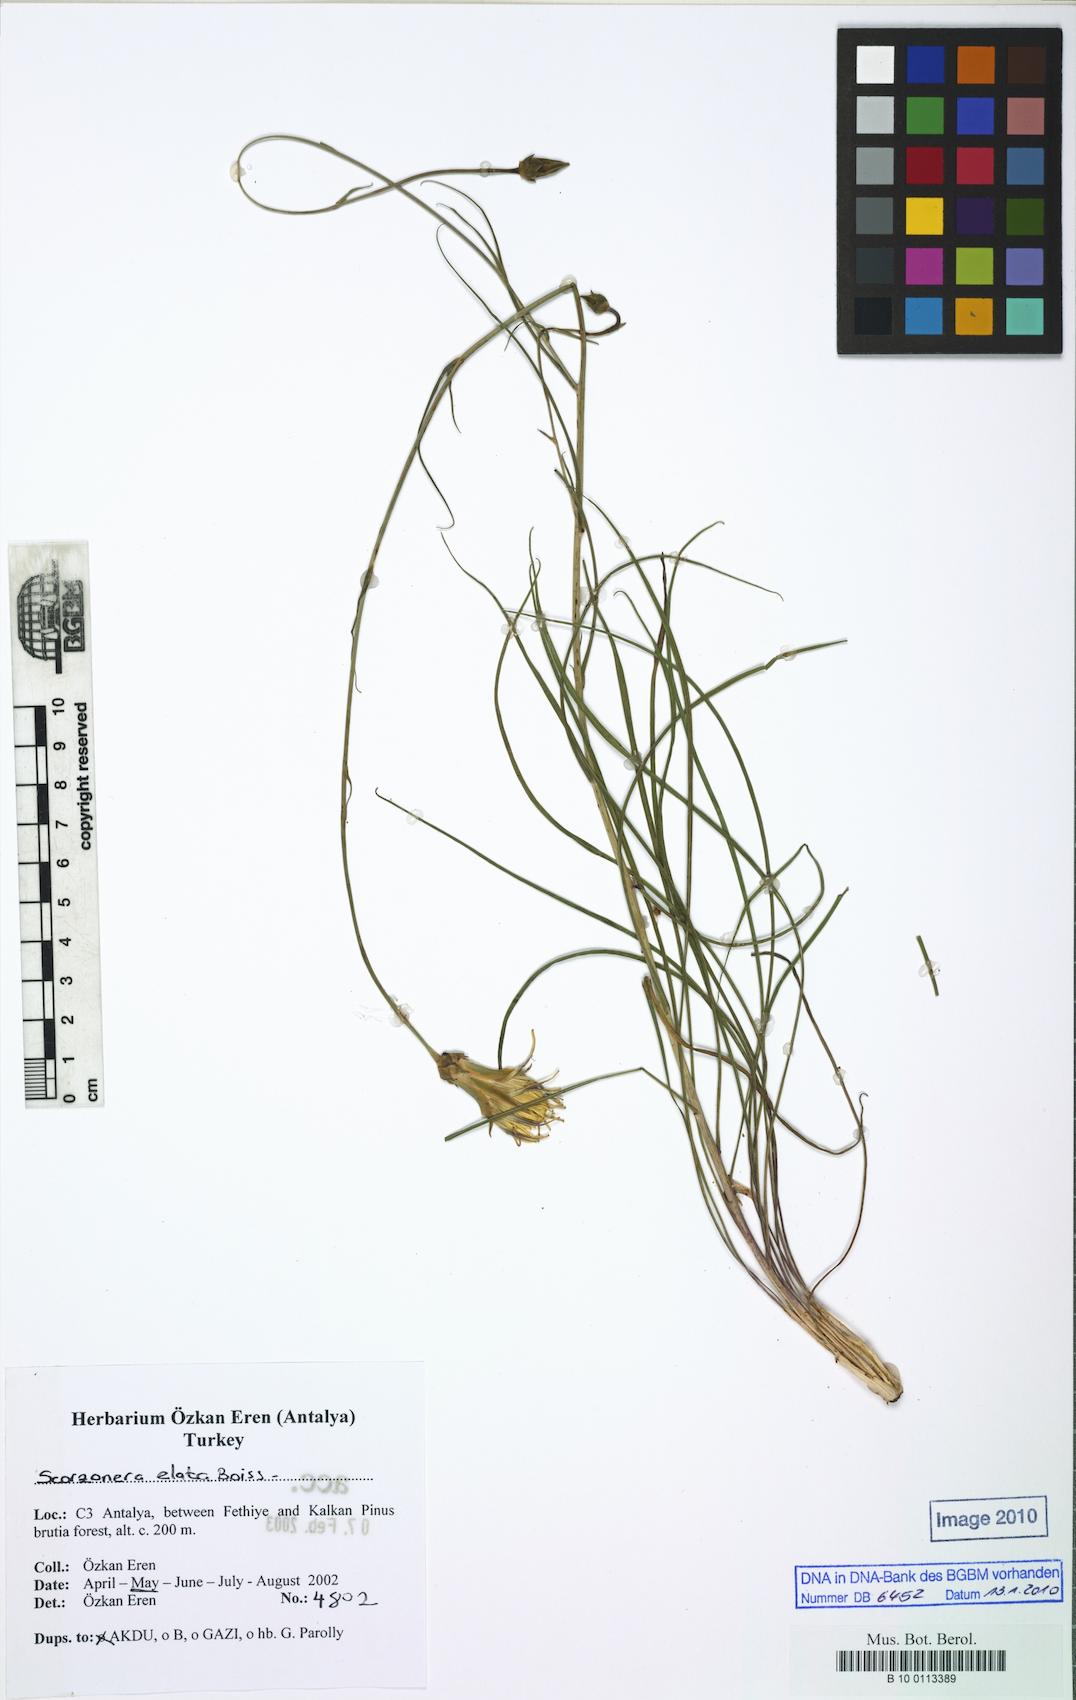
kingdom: Plantae
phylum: Tracheophyta
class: Magnoliopsida
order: Asterales
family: Asteraceae
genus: Candollea
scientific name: Candollea elata
